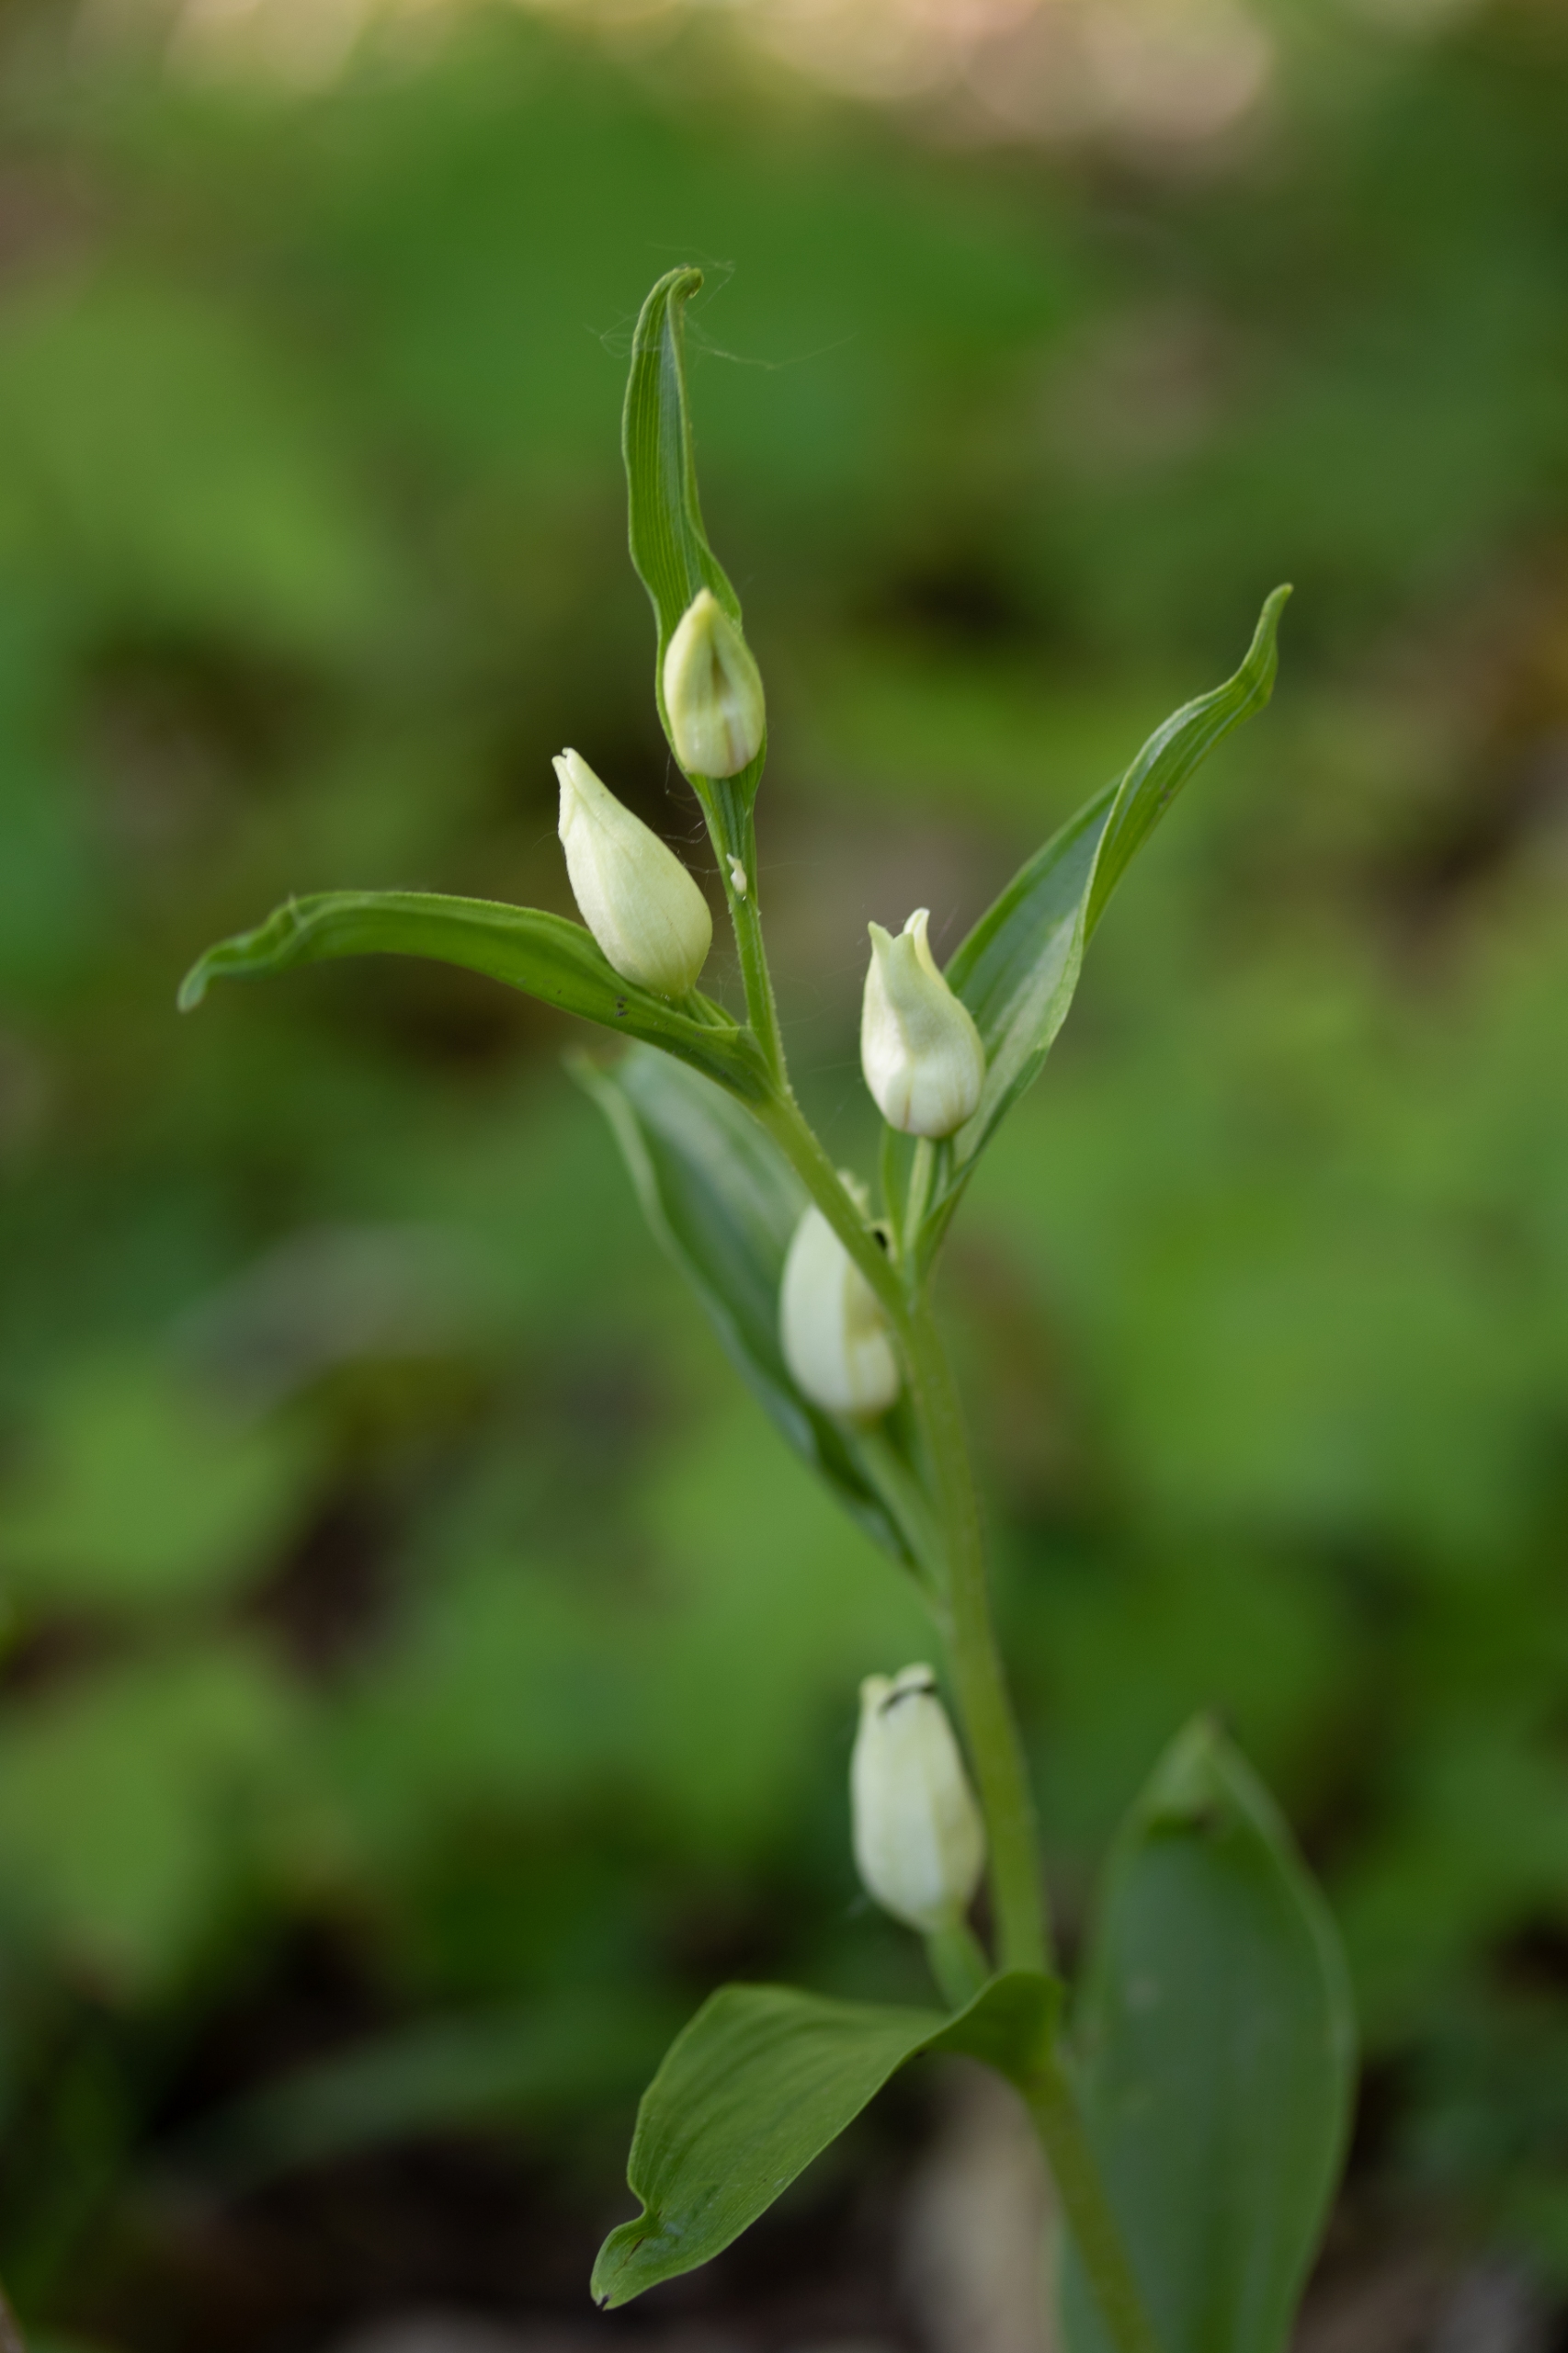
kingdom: Plantae
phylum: Tracheophyta
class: Liliopsida
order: Asparagales
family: Orchidaceae
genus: Cephalanthera
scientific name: Cephalanthera damasonium
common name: Hvidgul skovlilje
